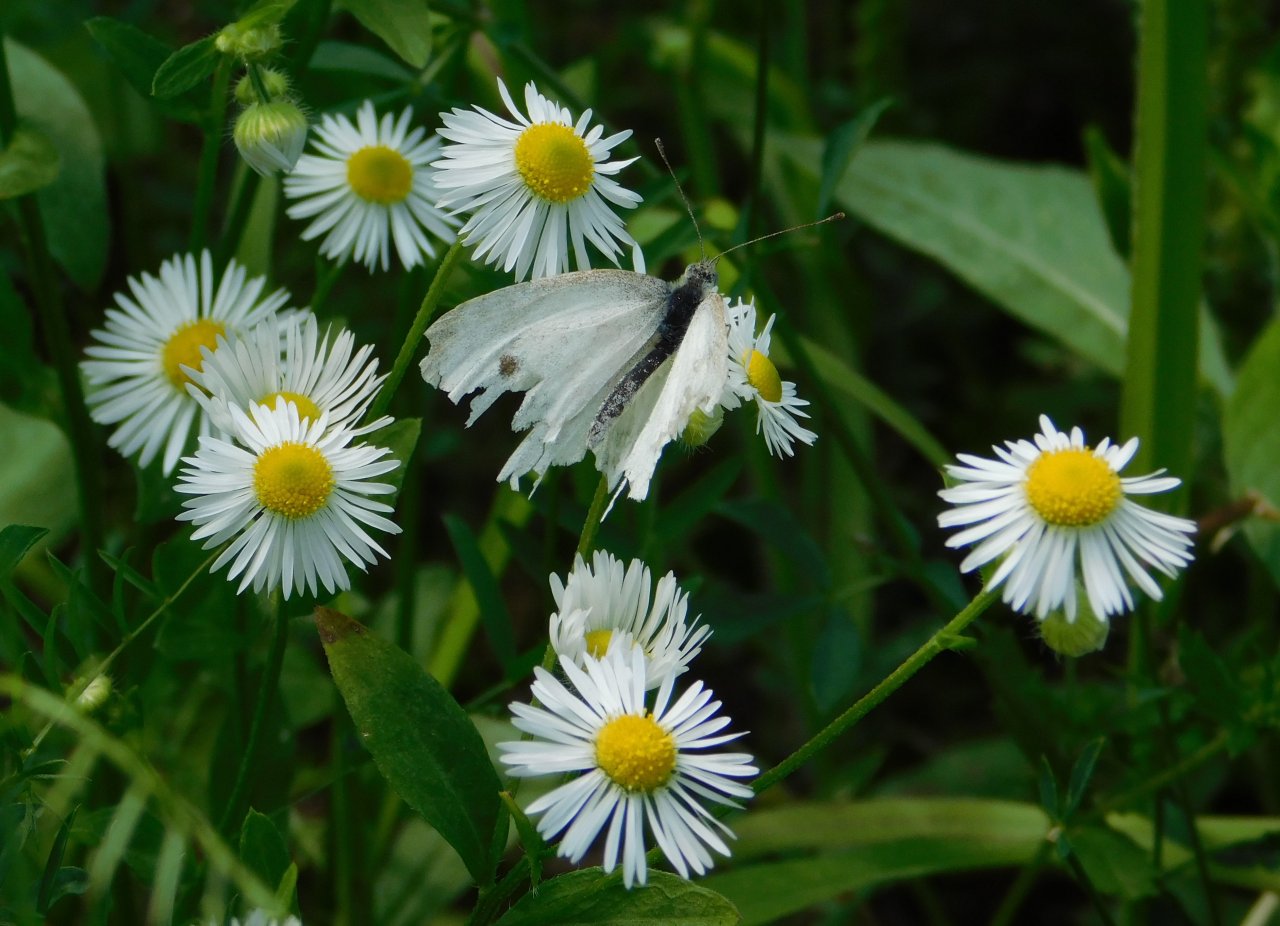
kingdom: Animalia
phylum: Arthropoda
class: Insecta
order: Lepidoptera
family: Pieridae
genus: Pieris
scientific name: Pieris rapae
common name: Cabbage White
